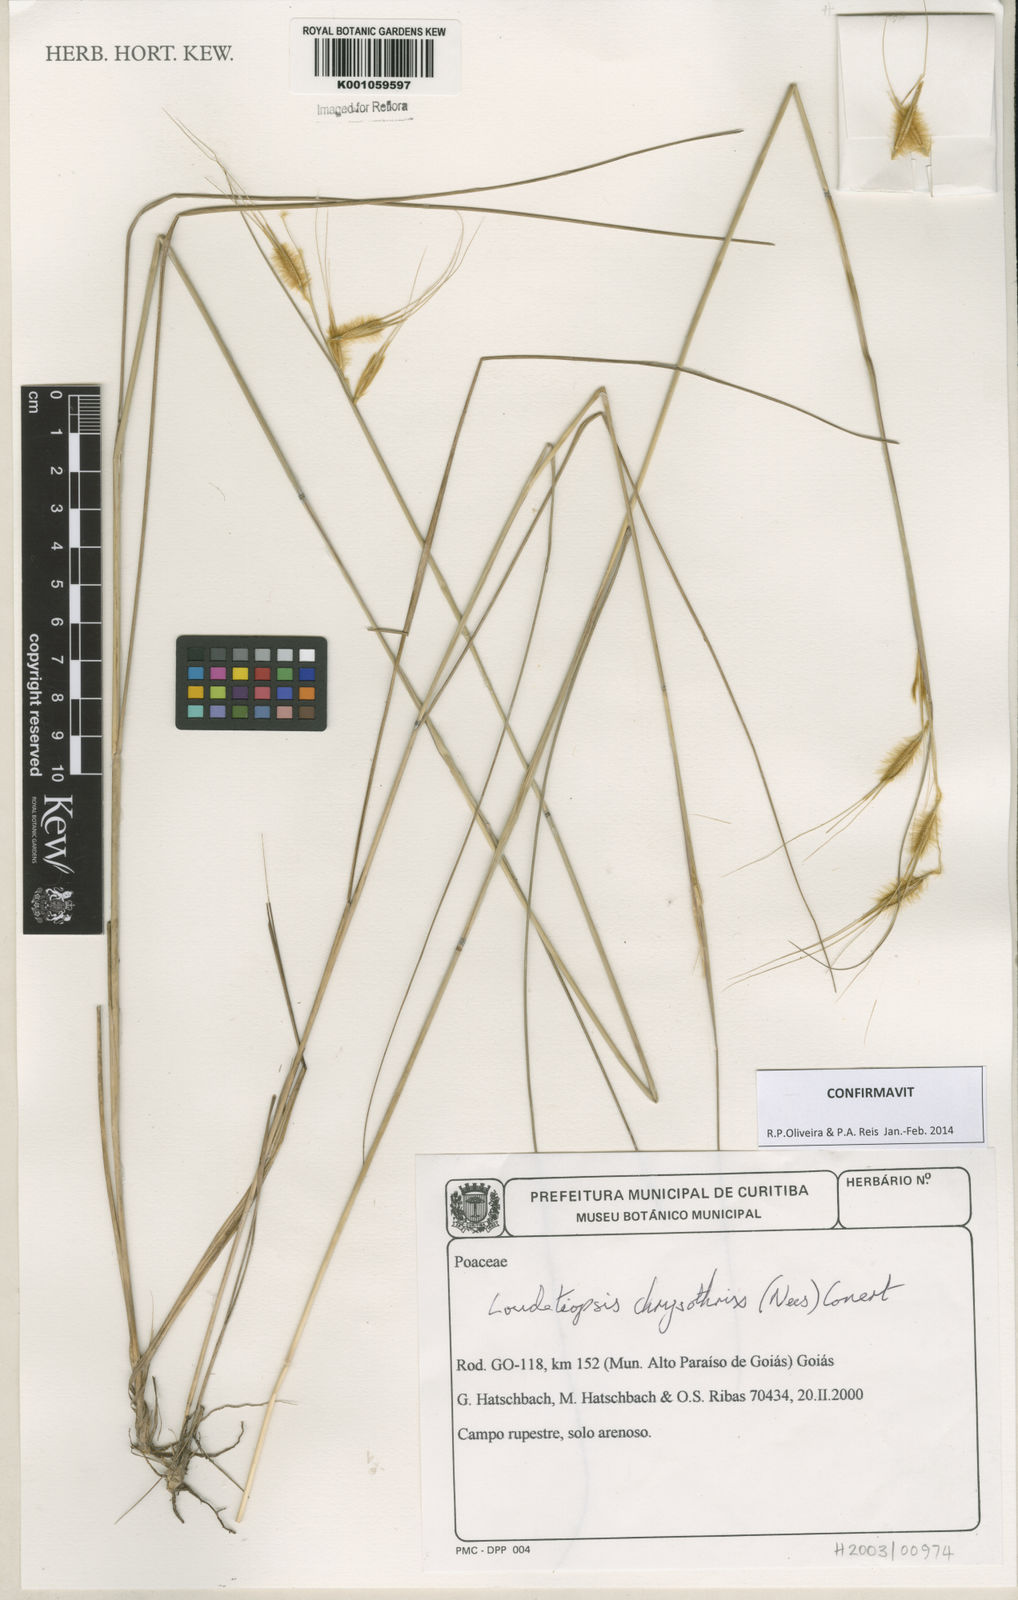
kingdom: Plantae
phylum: Tracheophyta
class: Liliopsida
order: Poales
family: Poaceae
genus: Loudetiopsis
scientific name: Loudetiopsis chrysothrix
